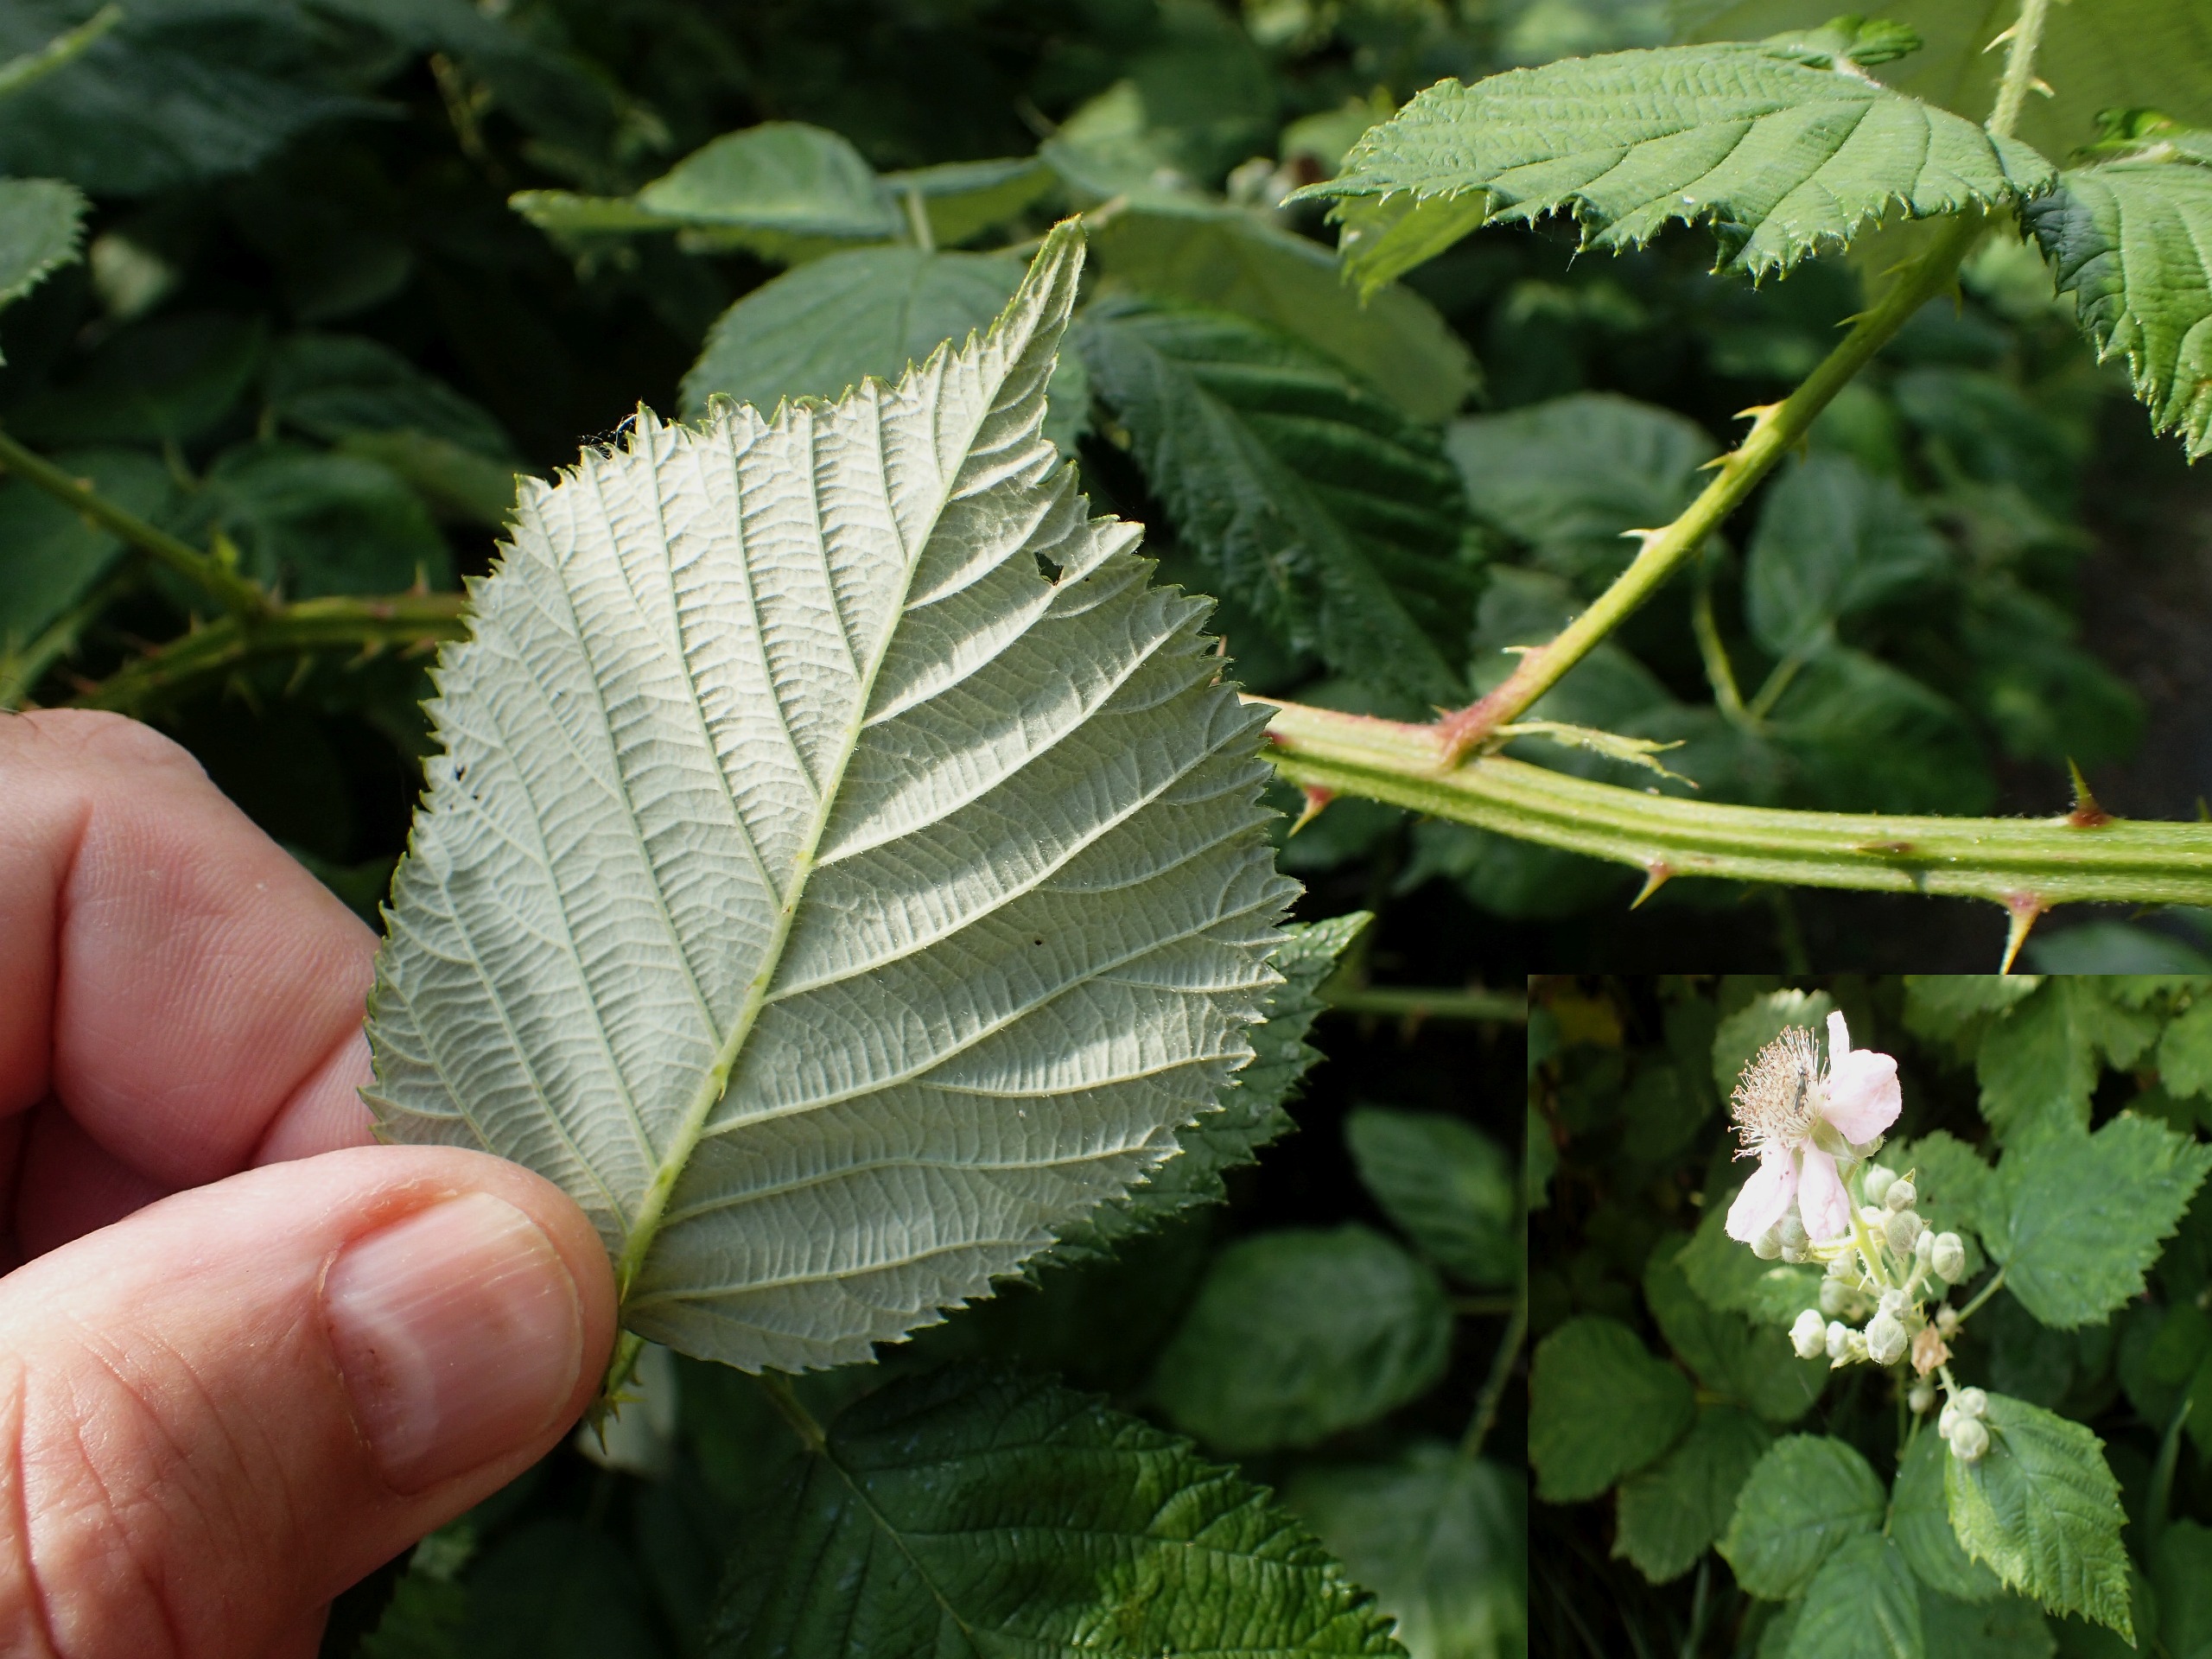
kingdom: Plantae
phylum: Tracheophyta
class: Magnoliopsida
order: Rosales
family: Rosaceae
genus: Rubus
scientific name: Rubus armeniacus
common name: Armensk brombær
